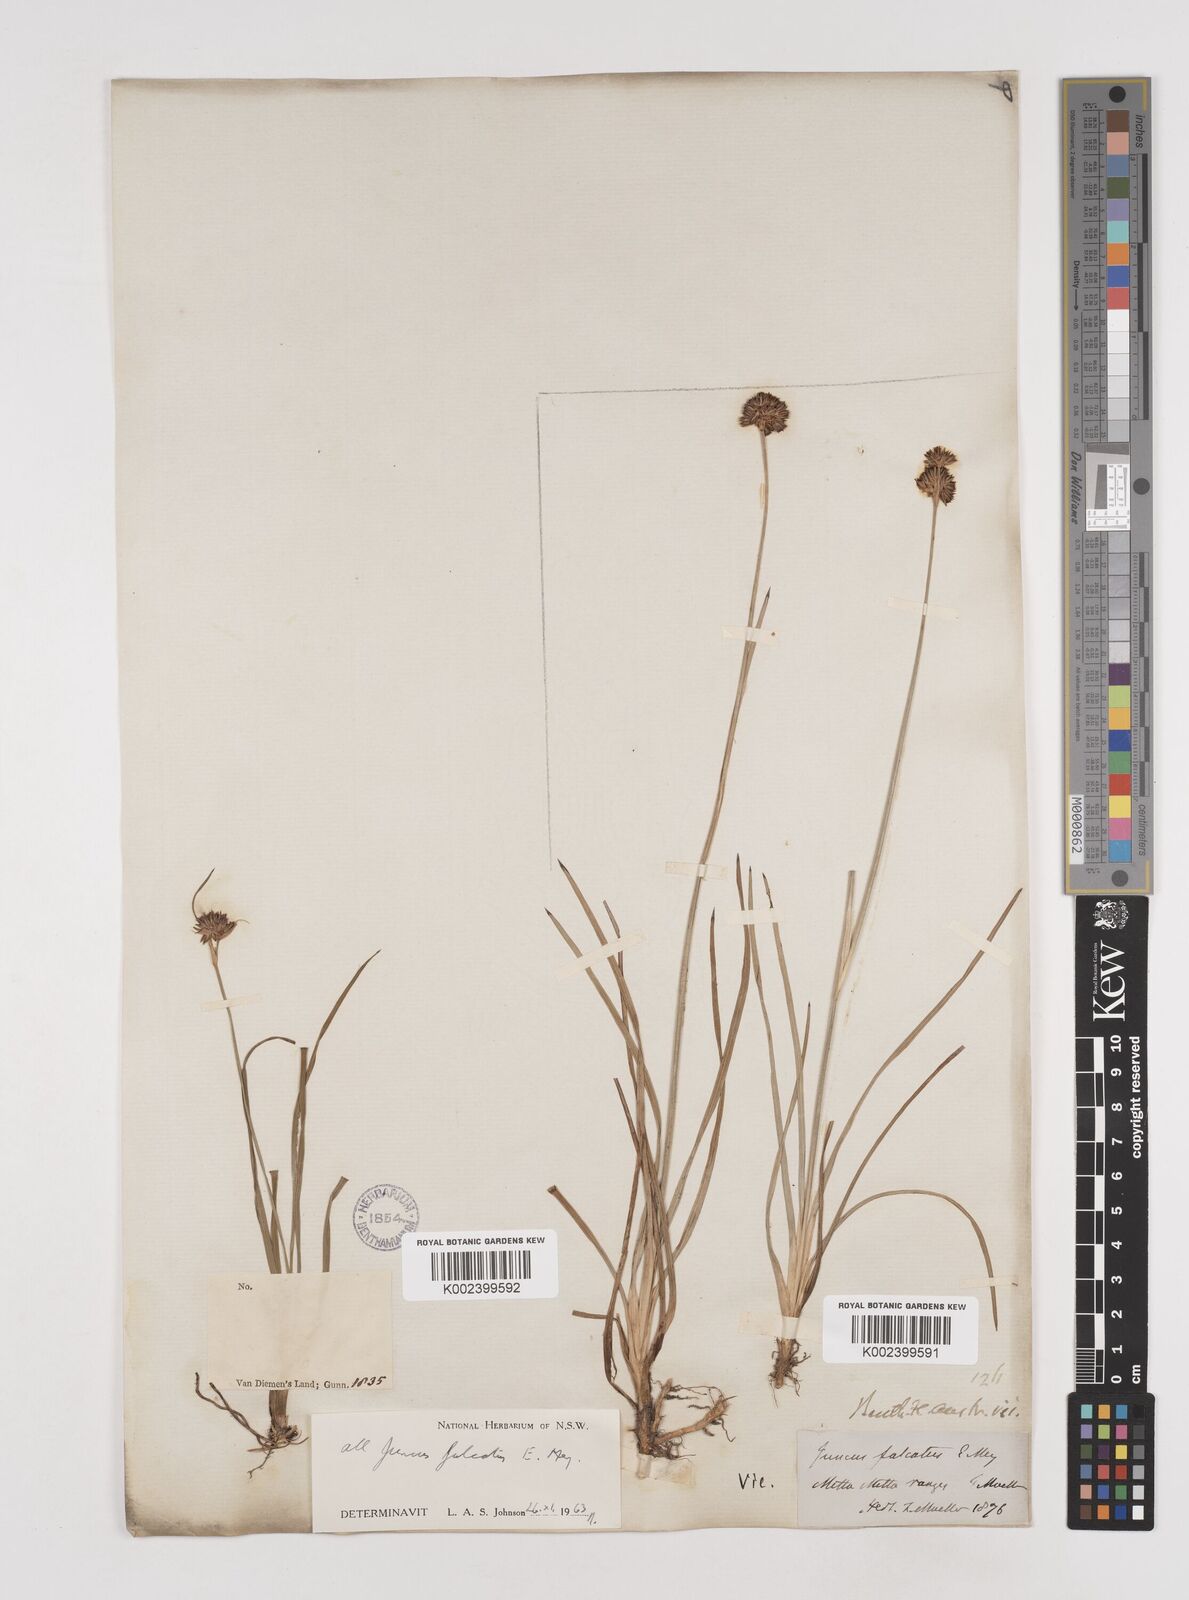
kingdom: Plantae
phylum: Tracheophyta
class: Liliopsida
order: Poales
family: Juncaceae
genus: Juncus
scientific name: Juncus falcatus
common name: Sickle-leaf rush
